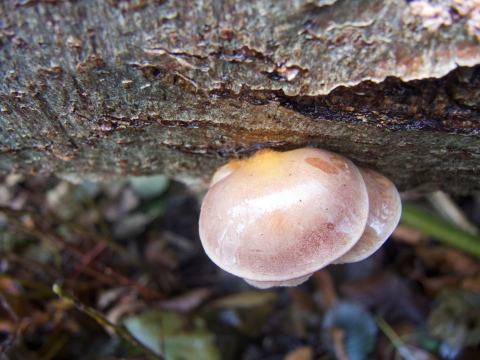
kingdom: Fungi
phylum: Basidiomycota
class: Agaricomycetes
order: Agaricales
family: Sarcomyxaceae
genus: Sarcomyxa
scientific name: Sarcomyxa serotina
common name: gummihat
